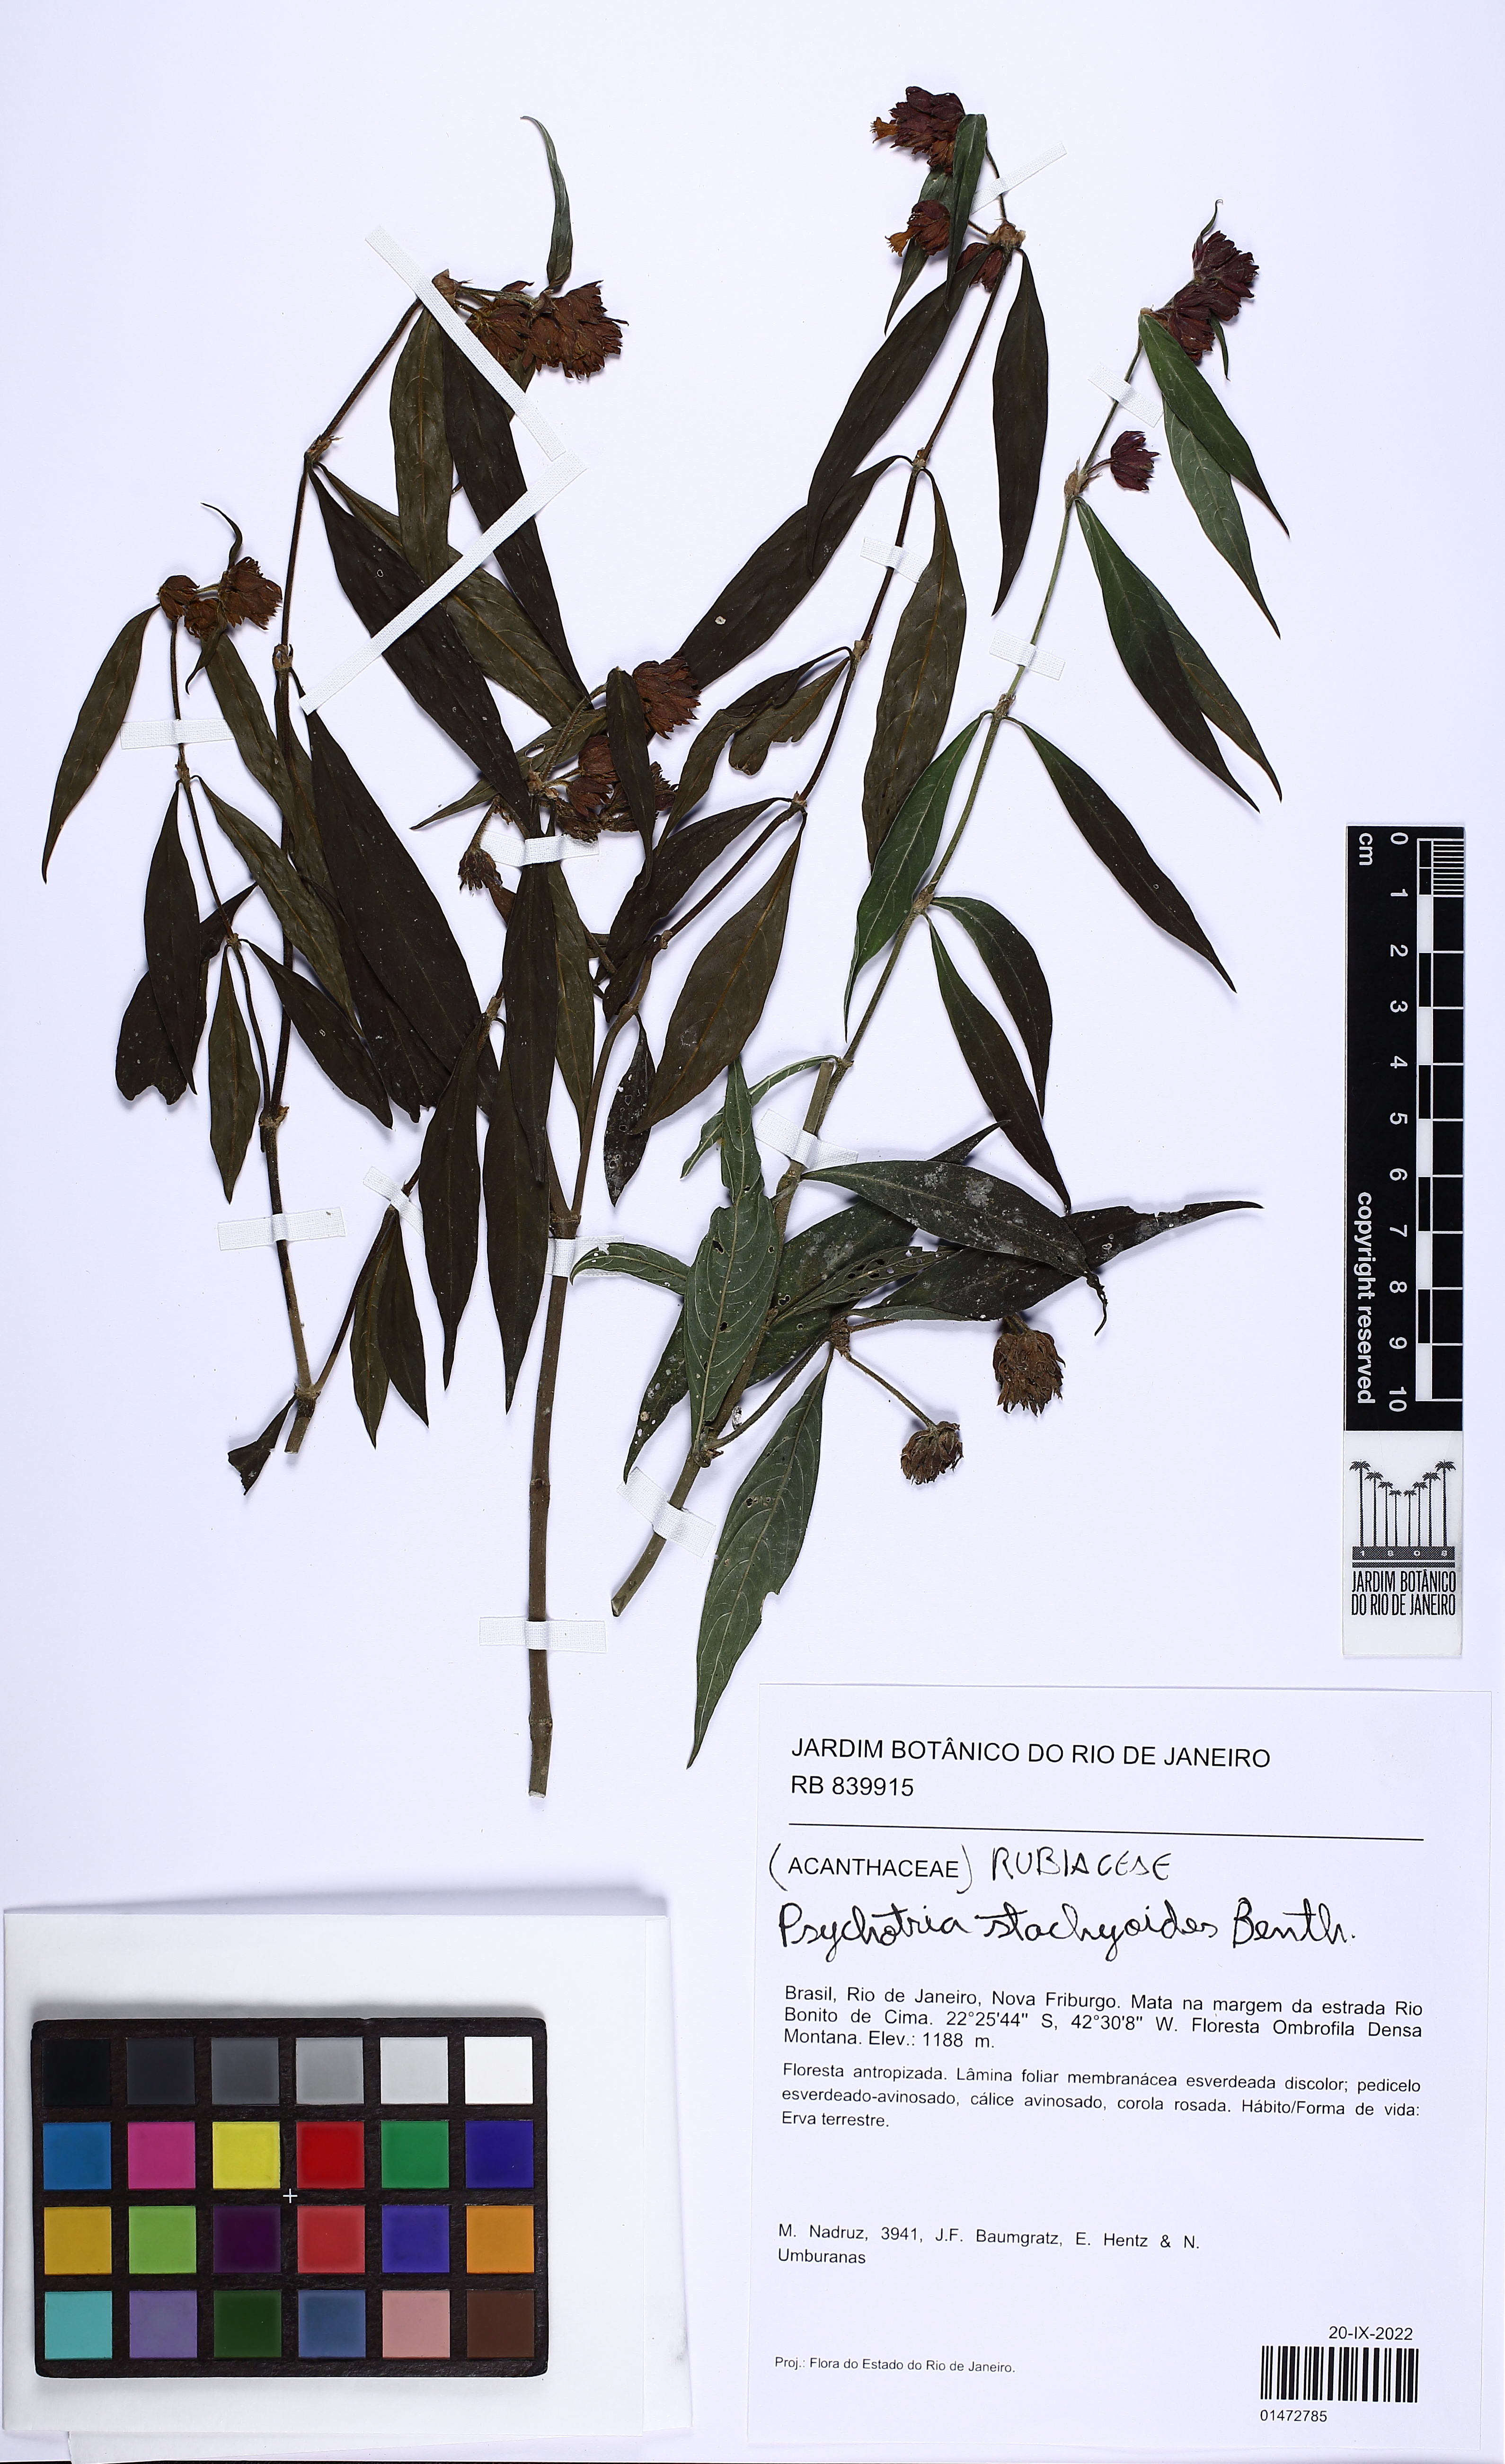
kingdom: Plantae
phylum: Tracheophyta
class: Magnoliopsida
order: Gentianales
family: Rubiaceae
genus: Psychotria
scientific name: Psychotria stachyoides
